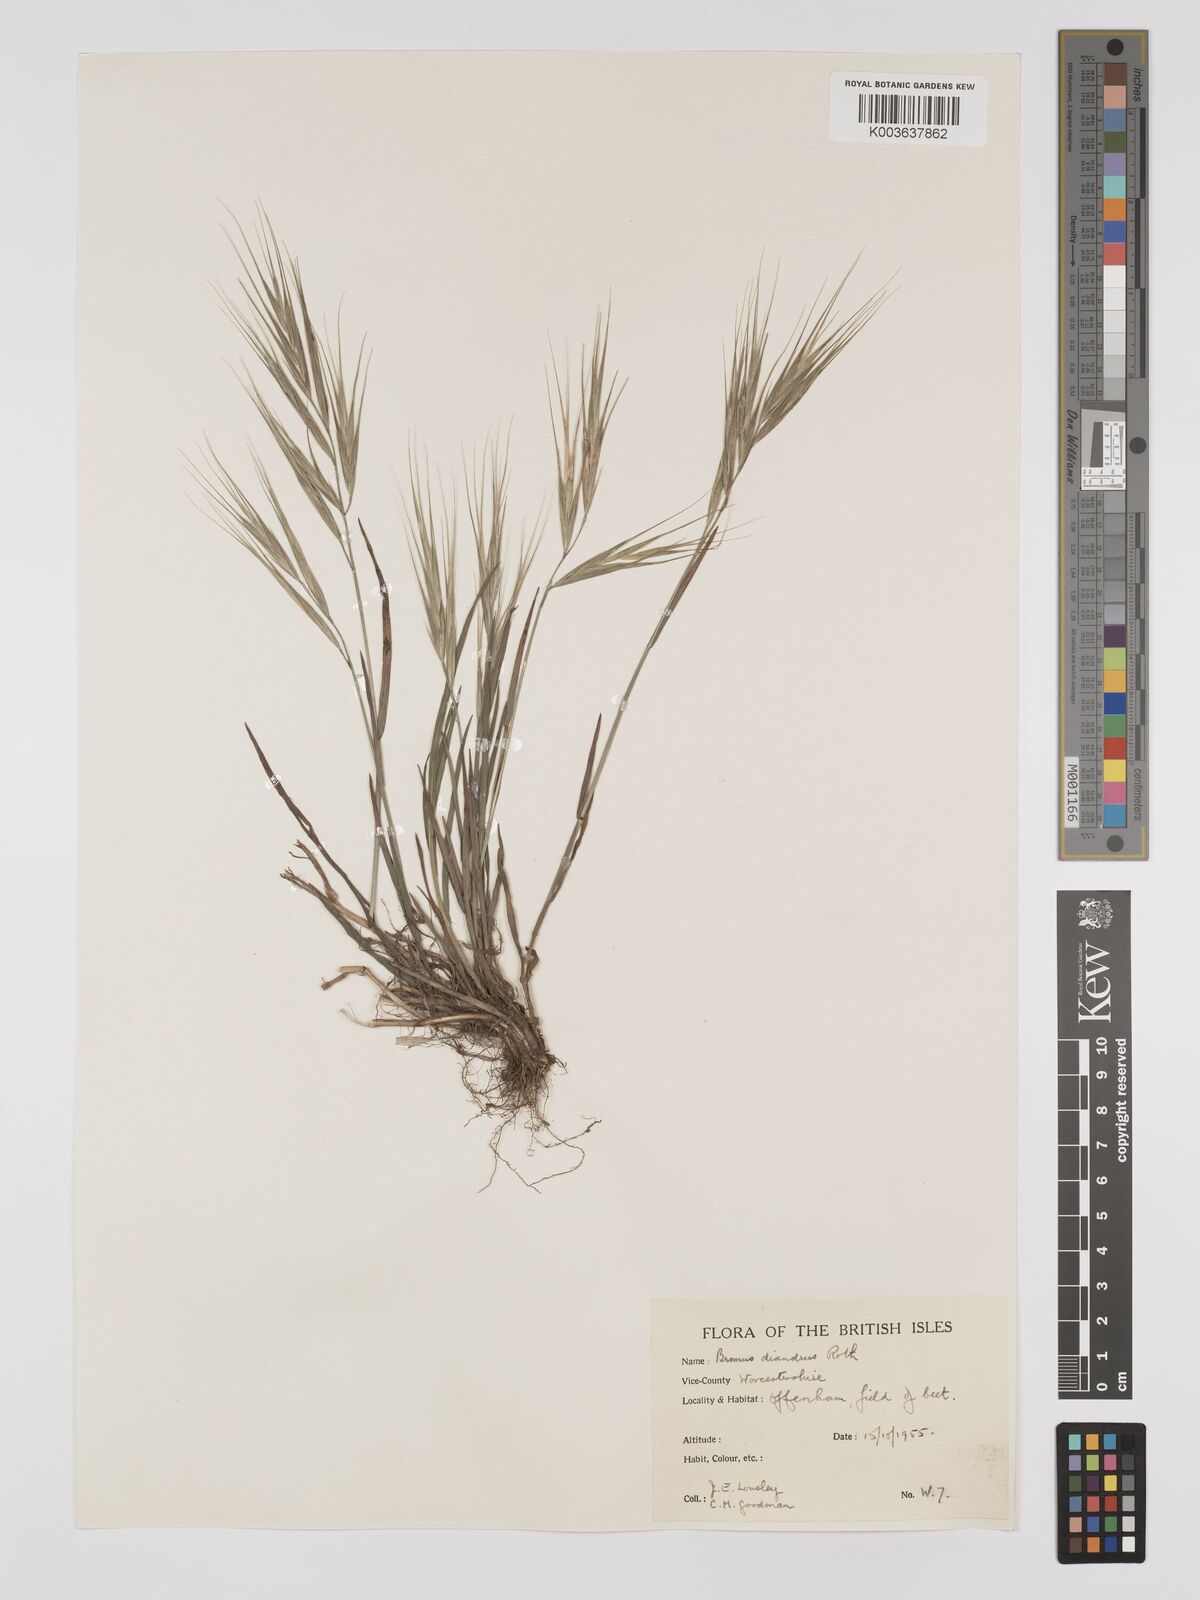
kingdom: Plantae
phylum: Tracheophyta
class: Liliopsida
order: Poales
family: Poaceae
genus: Bromus
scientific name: Bromus
